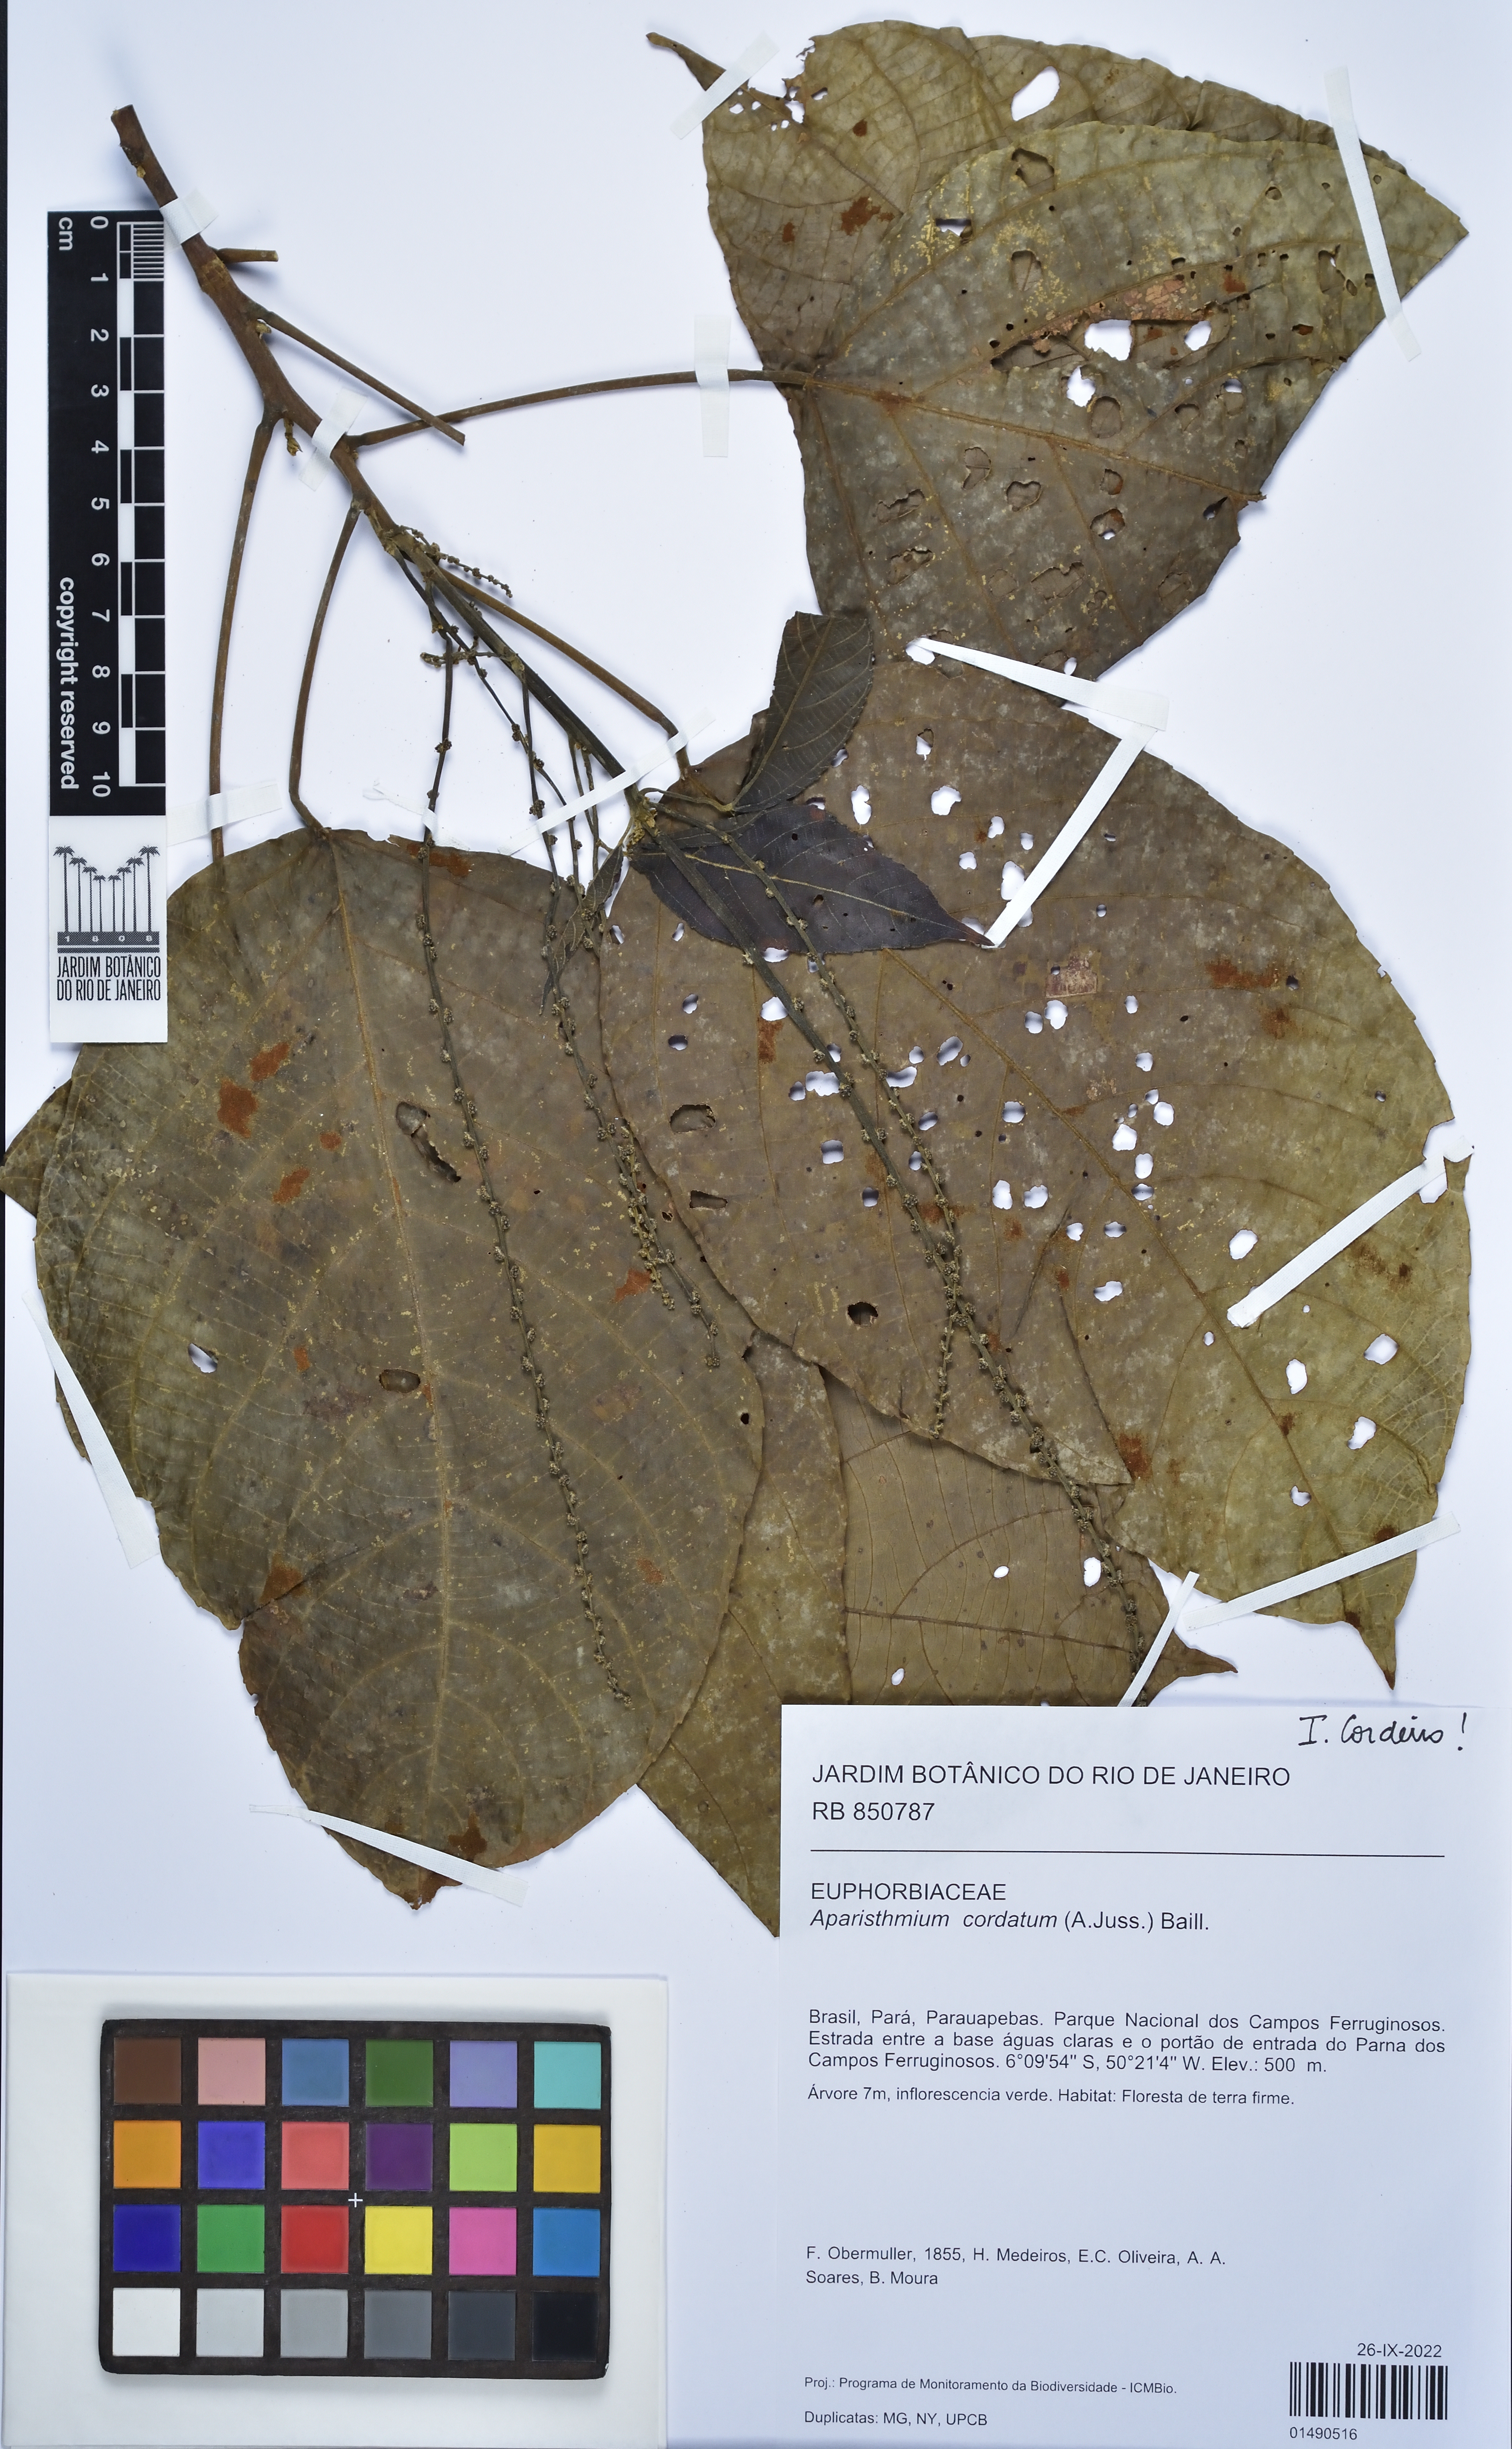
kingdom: Plantae
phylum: Tracheophyta
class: Magnoliopsida
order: Malpighiales
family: Euphorbiaceae
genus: Aparisthmium
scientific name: Aparisthmium cordatum
